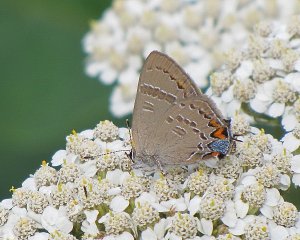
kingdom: Animalia
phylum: Arthropoda
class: Insecta
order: Lepidoptera
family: Lycaenidae
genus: Satyrium
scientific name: Satyrium calanus
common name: Banded Hairstreak
